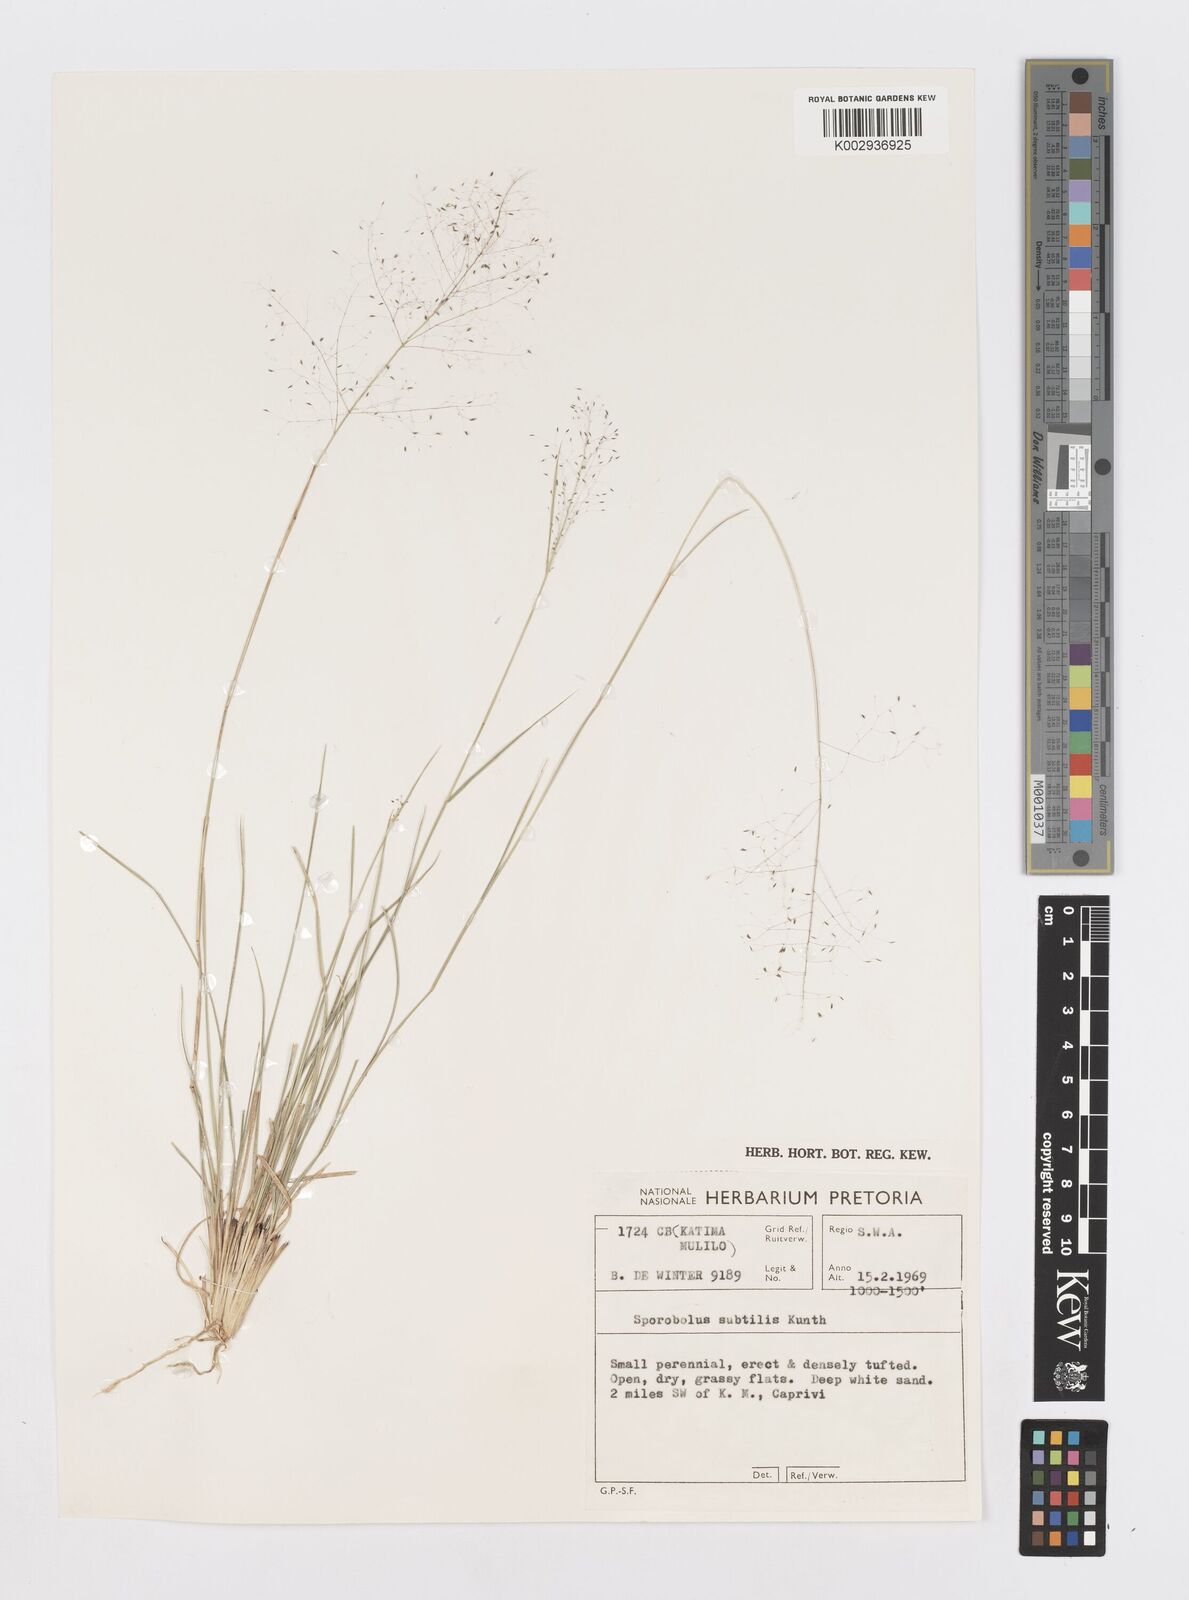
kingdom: Plantae
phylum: Tracheophyta
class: Liliopsida
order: Poales
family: Poaceae
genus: Sporobolus
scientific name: Sporobolus subtilis
